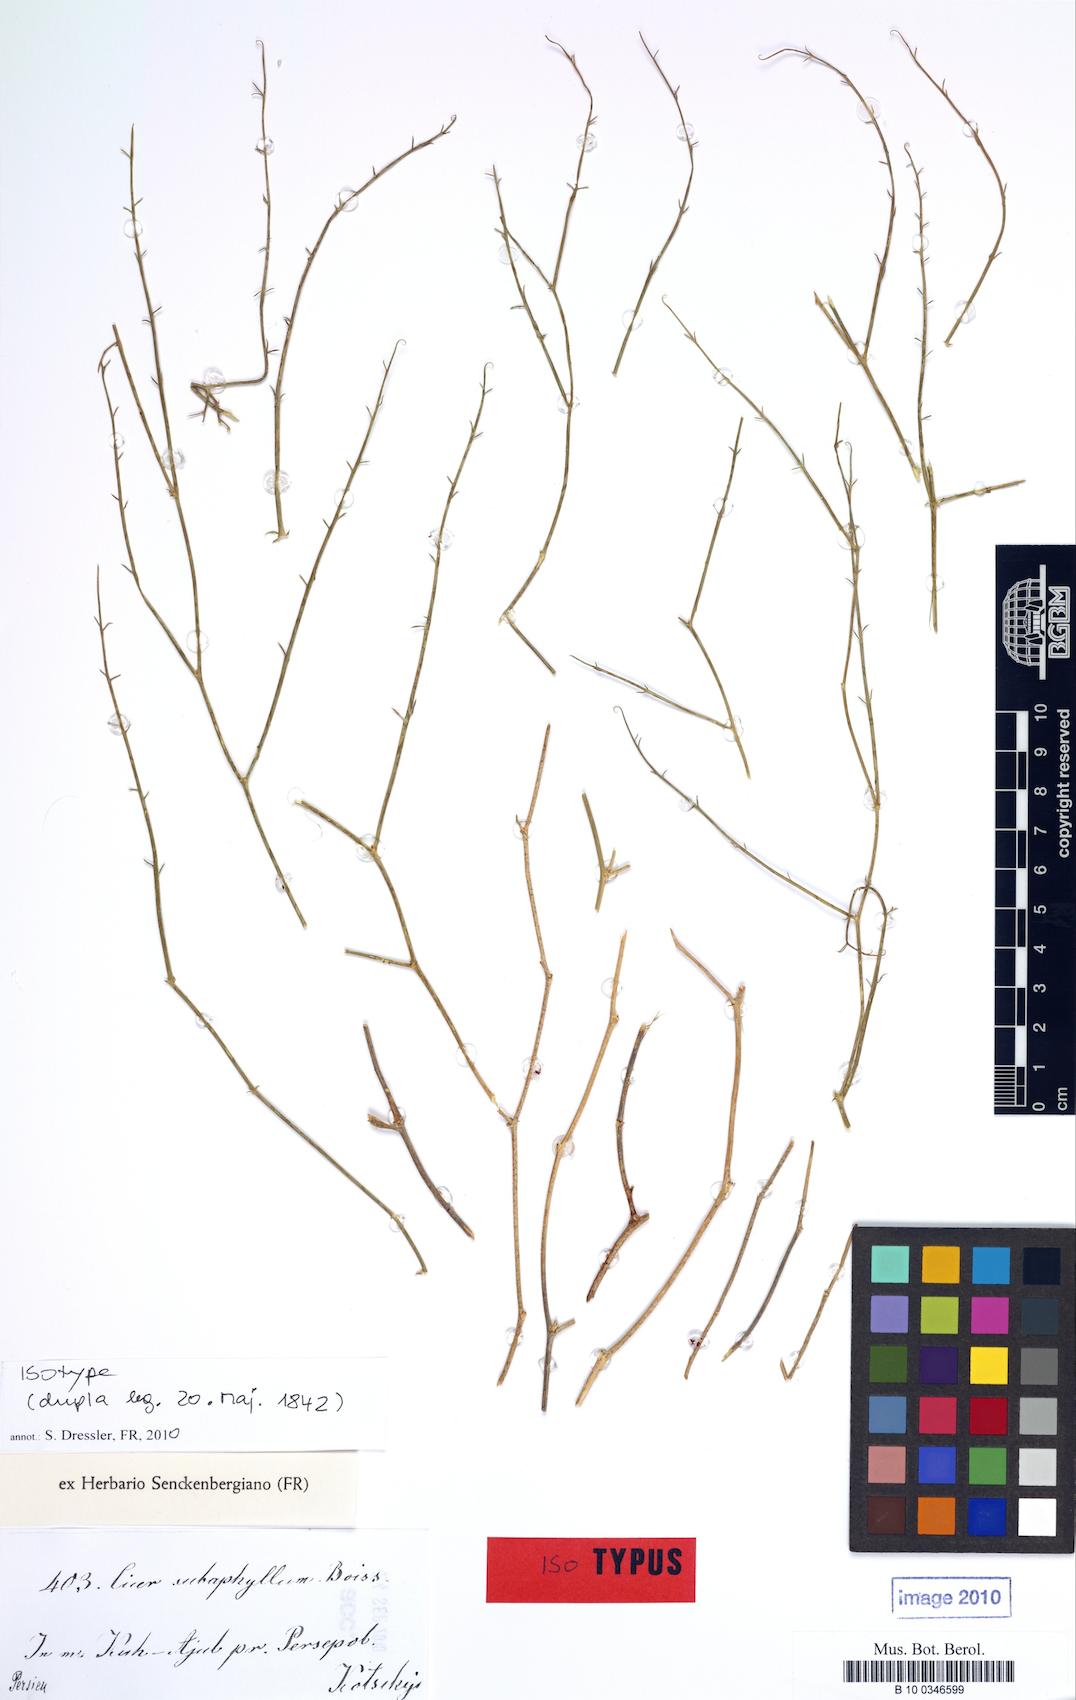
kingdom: Plantae
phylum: Tracheophyta
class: Magnoliopsida
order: Fabales
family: Fabaceae
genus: Cicer
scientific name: Cicer subaphyllum
